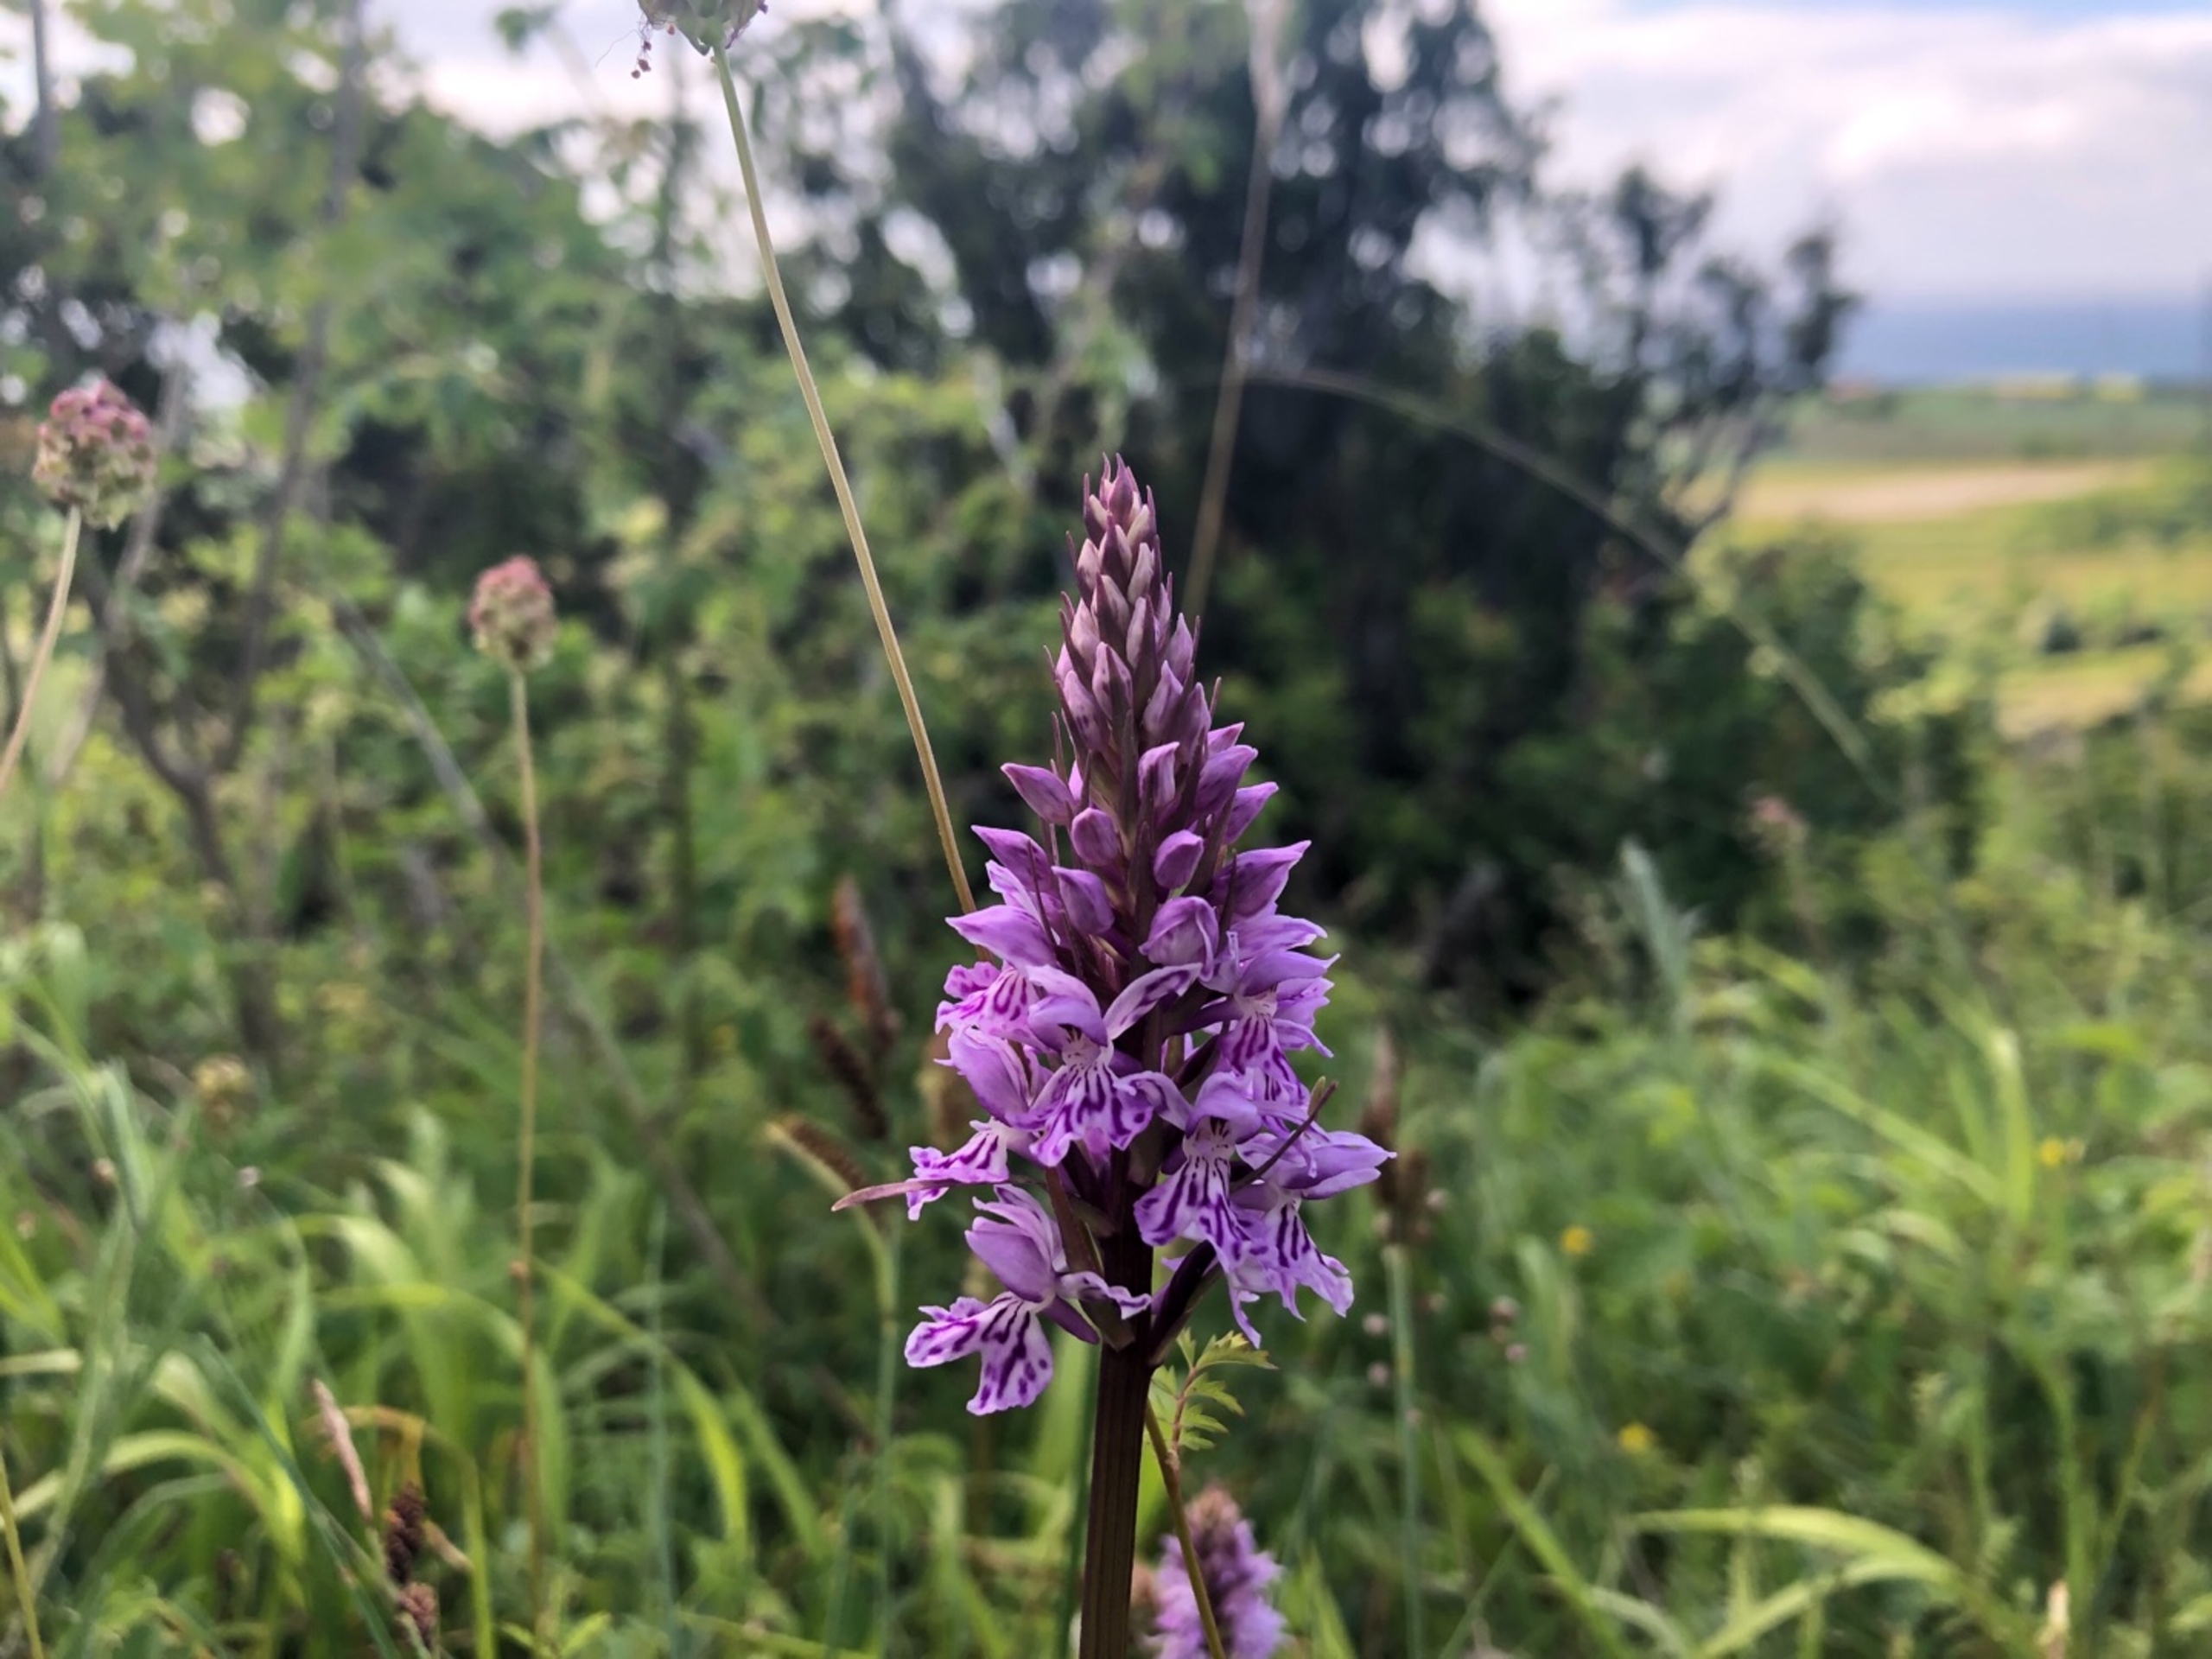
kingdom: Plantae
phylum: Tracheophyta
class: Liliopsida
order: Asparagales
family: Orchidaceae
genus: Dactylorhiza
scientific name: Dactylorhiza maculata
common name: Skov-gøgeurt
